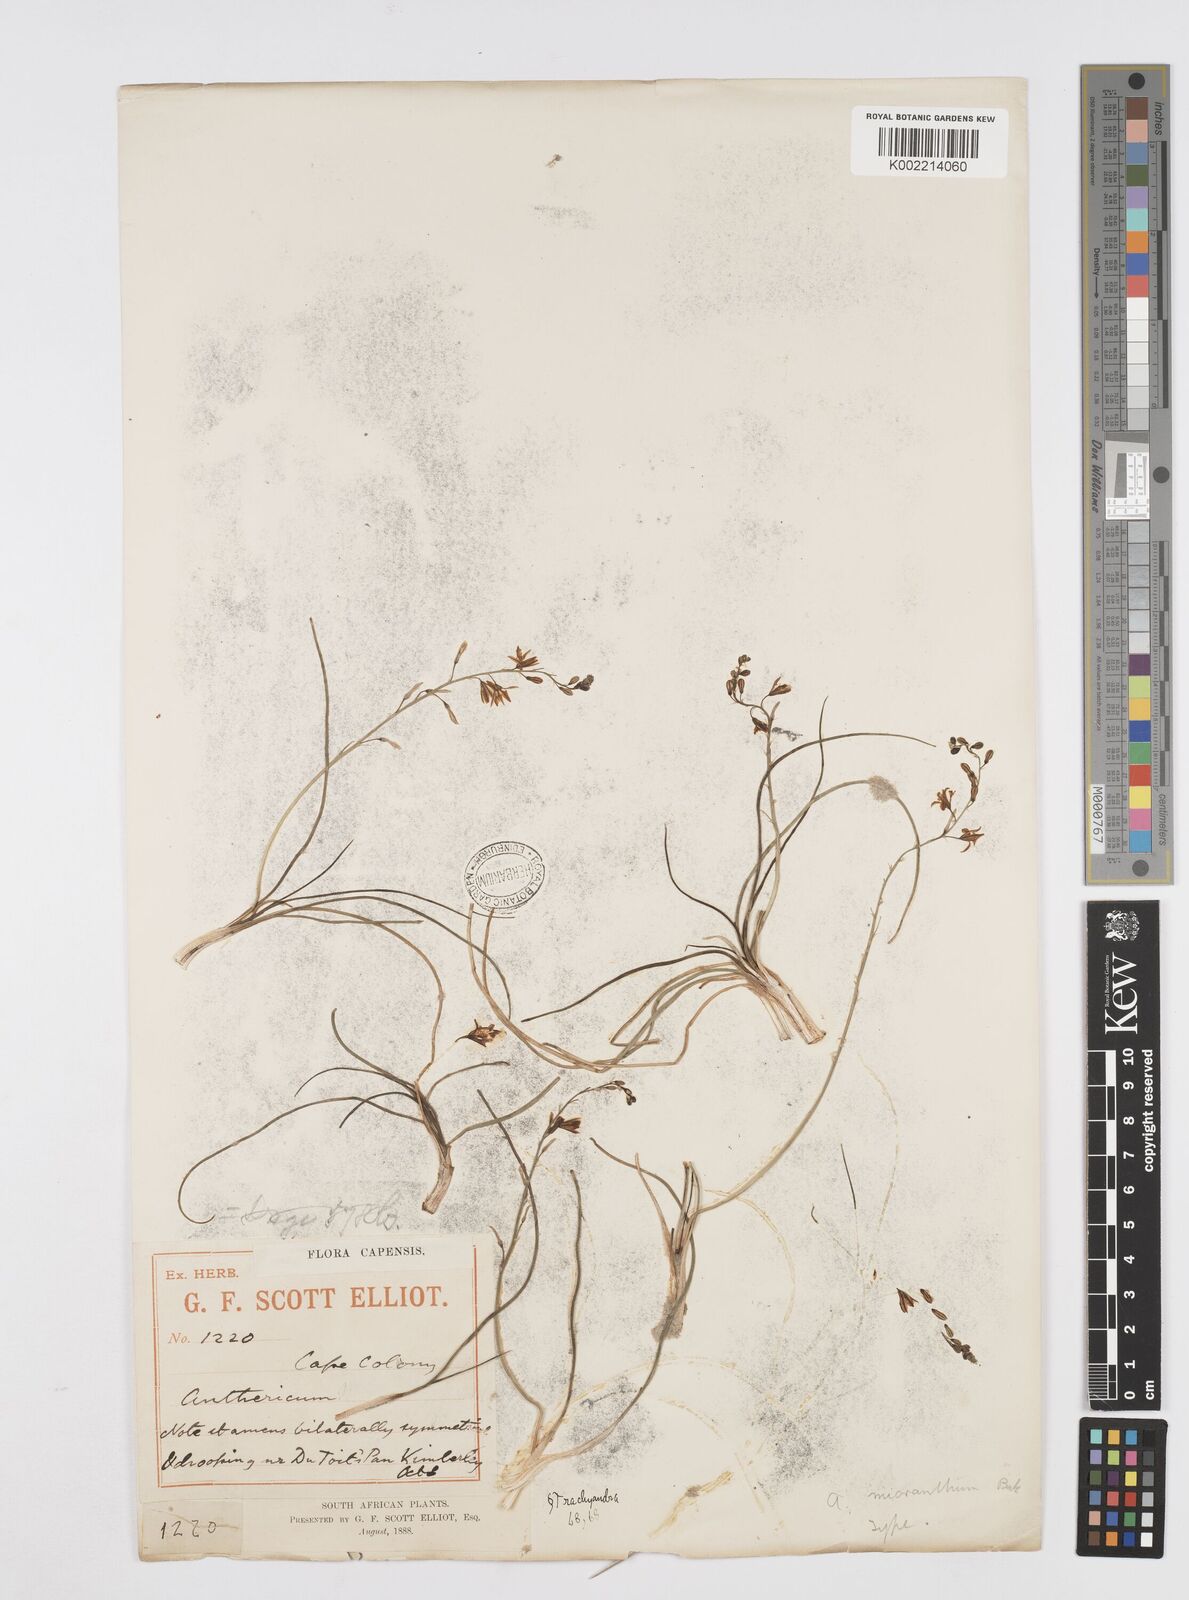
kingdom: Plantae
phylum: Tracheophyta
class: Liliopsida
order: Asparagales
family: Asphodelaceae
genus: Trachyandra
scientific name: Trachyandra
